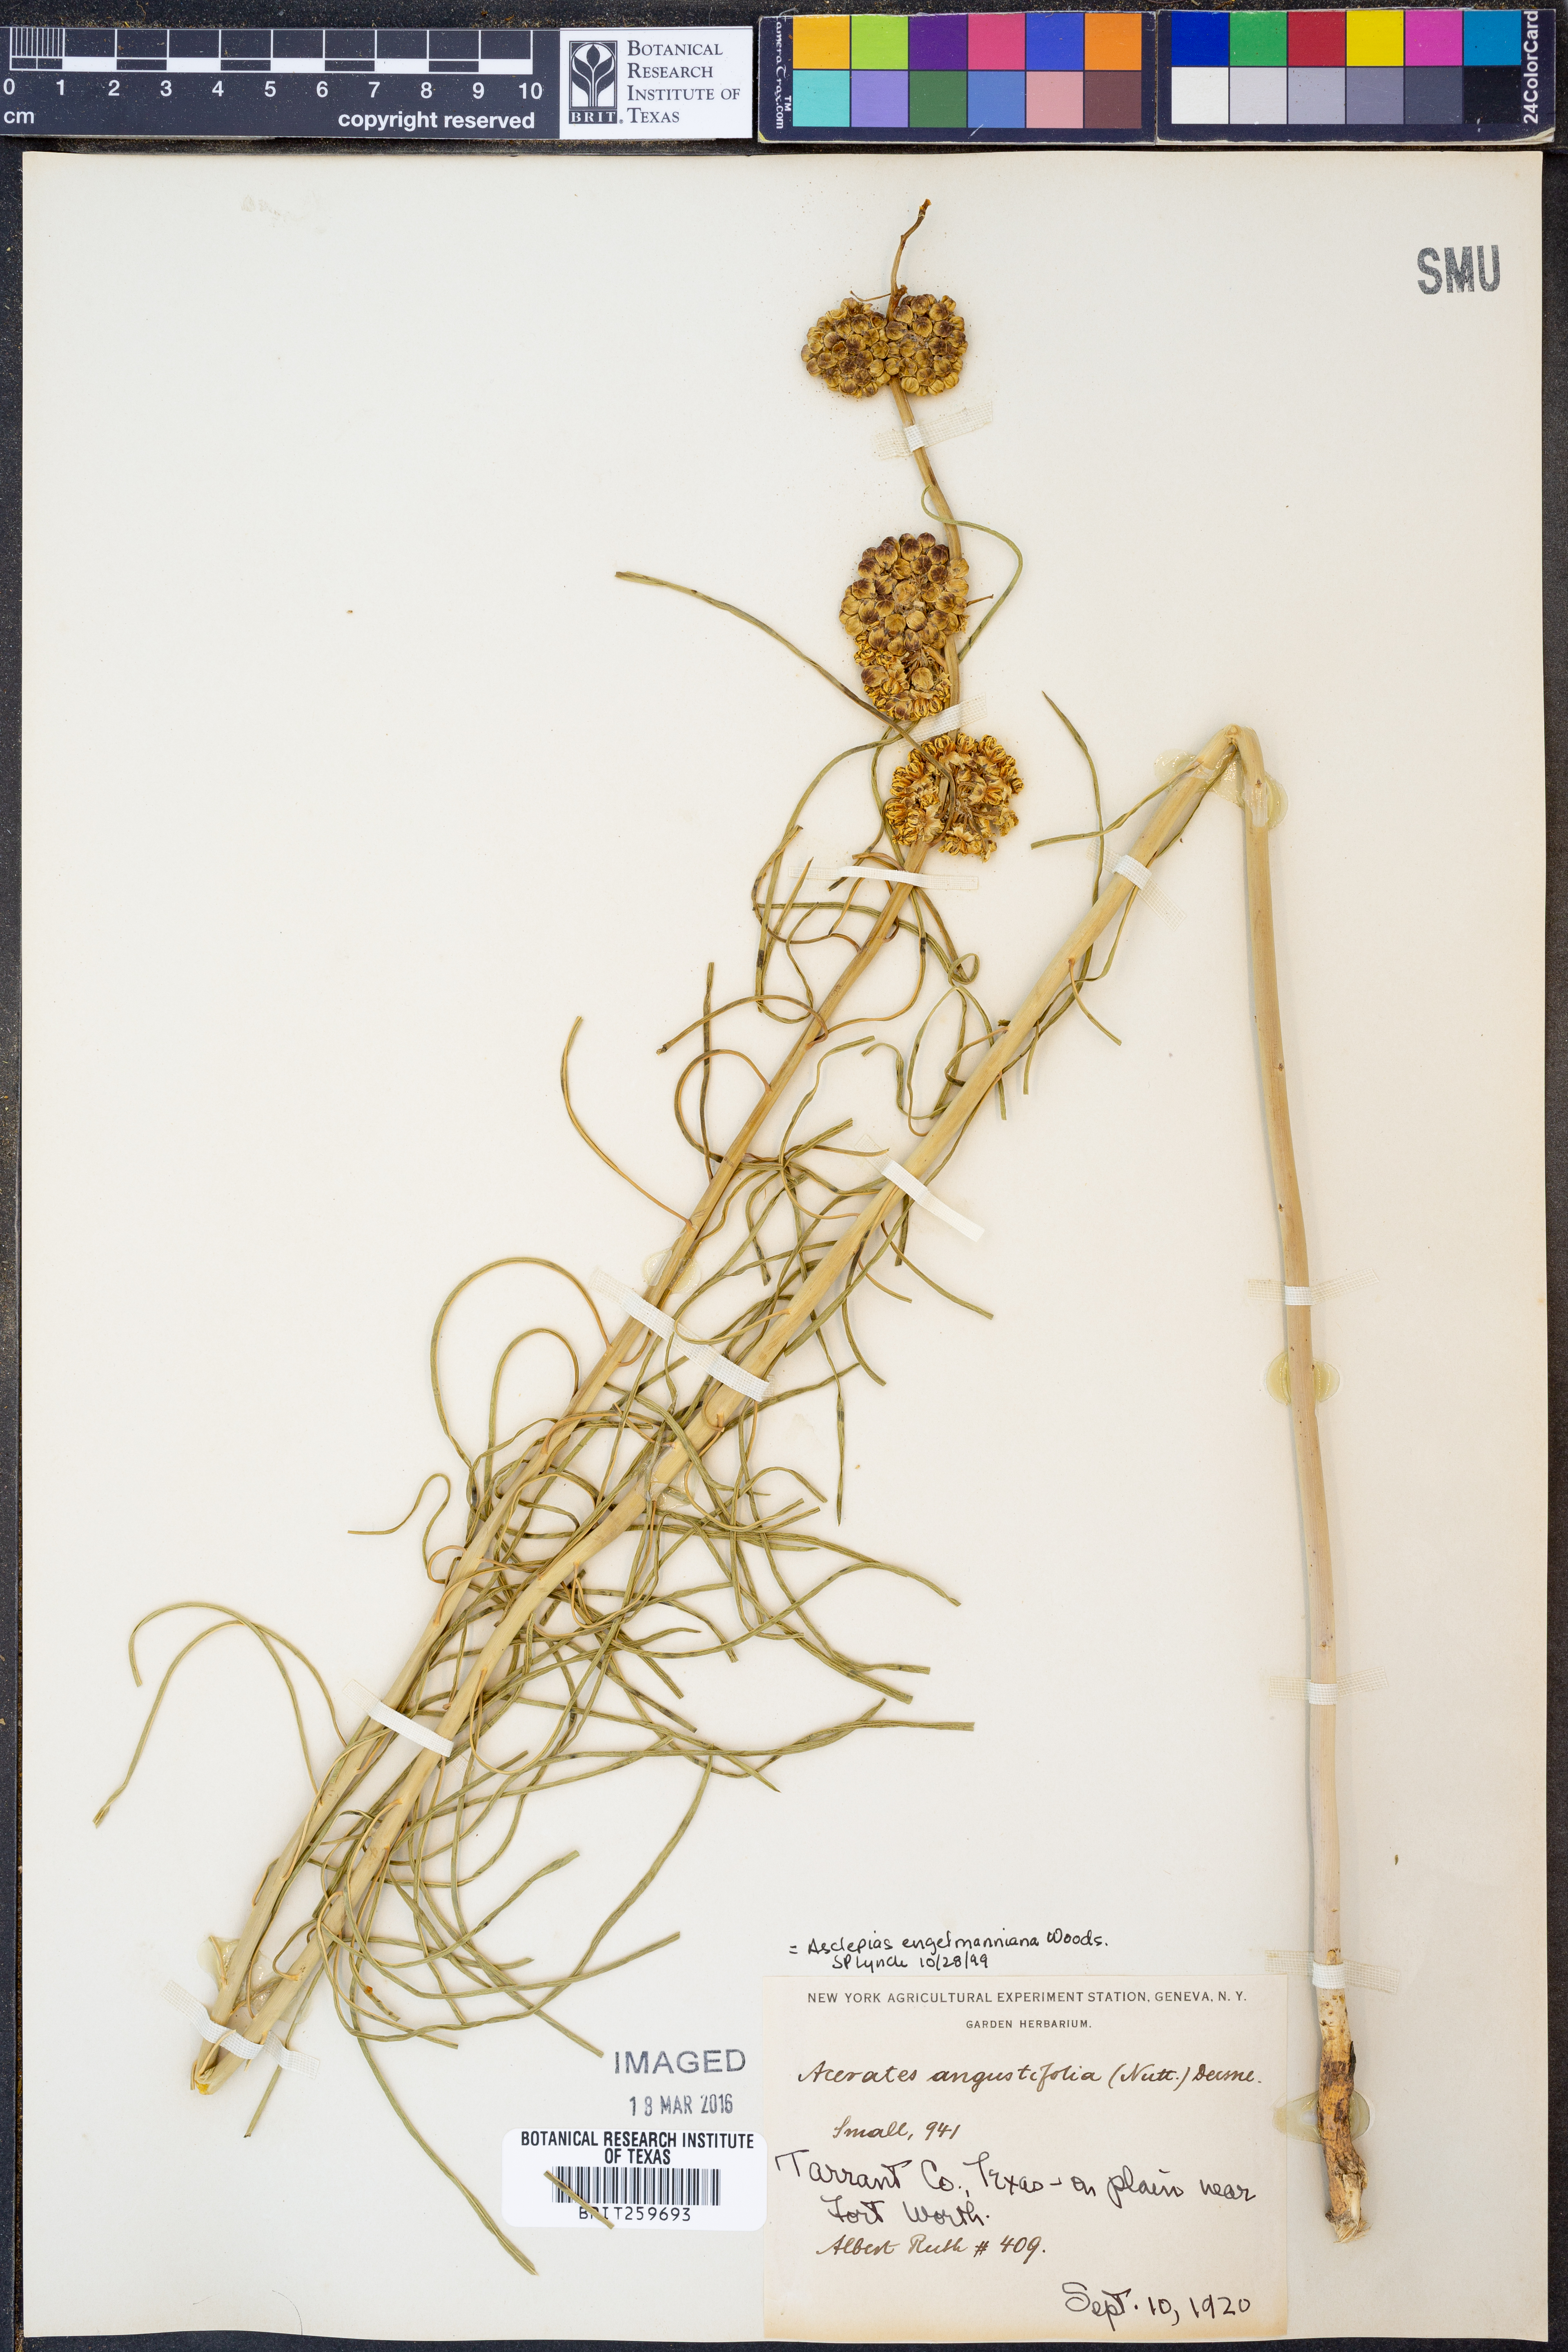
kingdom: Plantae
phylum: Tracheophyta
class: Magnoliopsida
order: Gentianales
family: Apocynaceae
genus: Asclepias
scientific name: Asclepias engelmanniana
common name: Engelmann's milkweed
